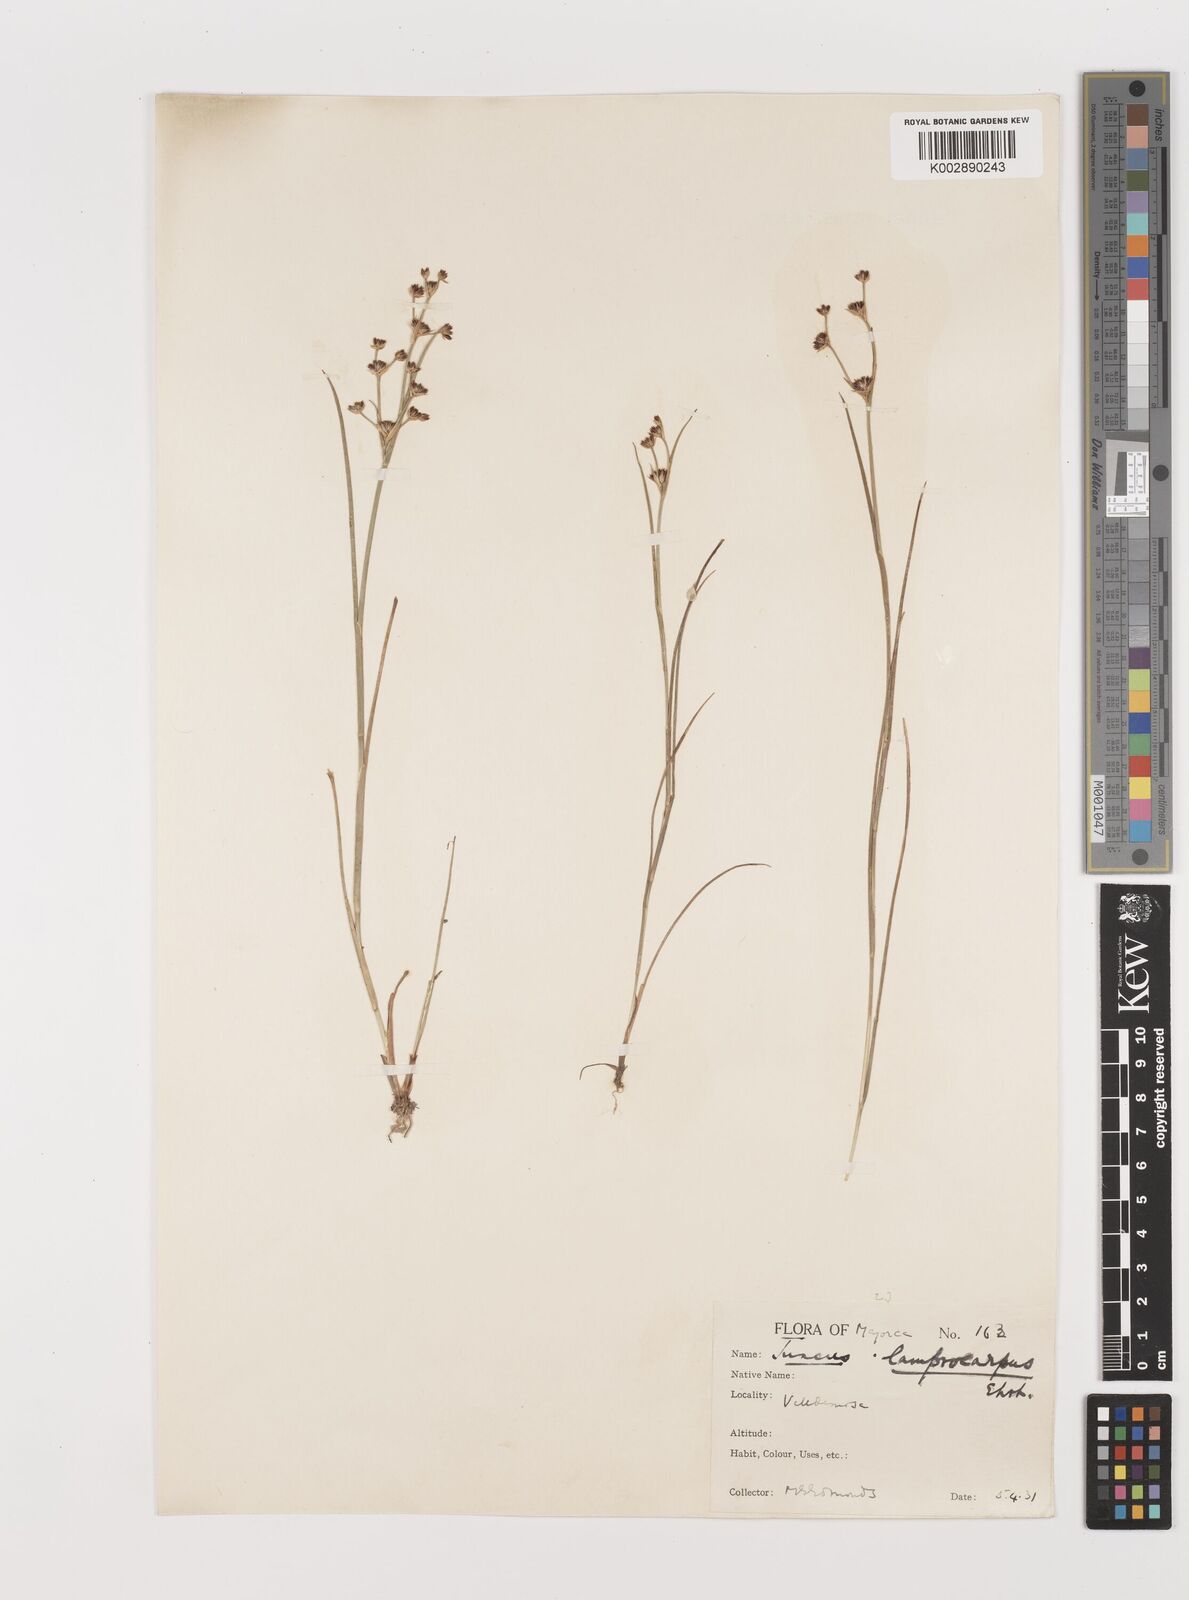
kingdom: Plantae
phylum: Tracheophyta
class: Liliopsida
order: Poales
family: Juncaceae
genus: Juncus
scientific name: Juncus articulatus
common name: Jointed rush
